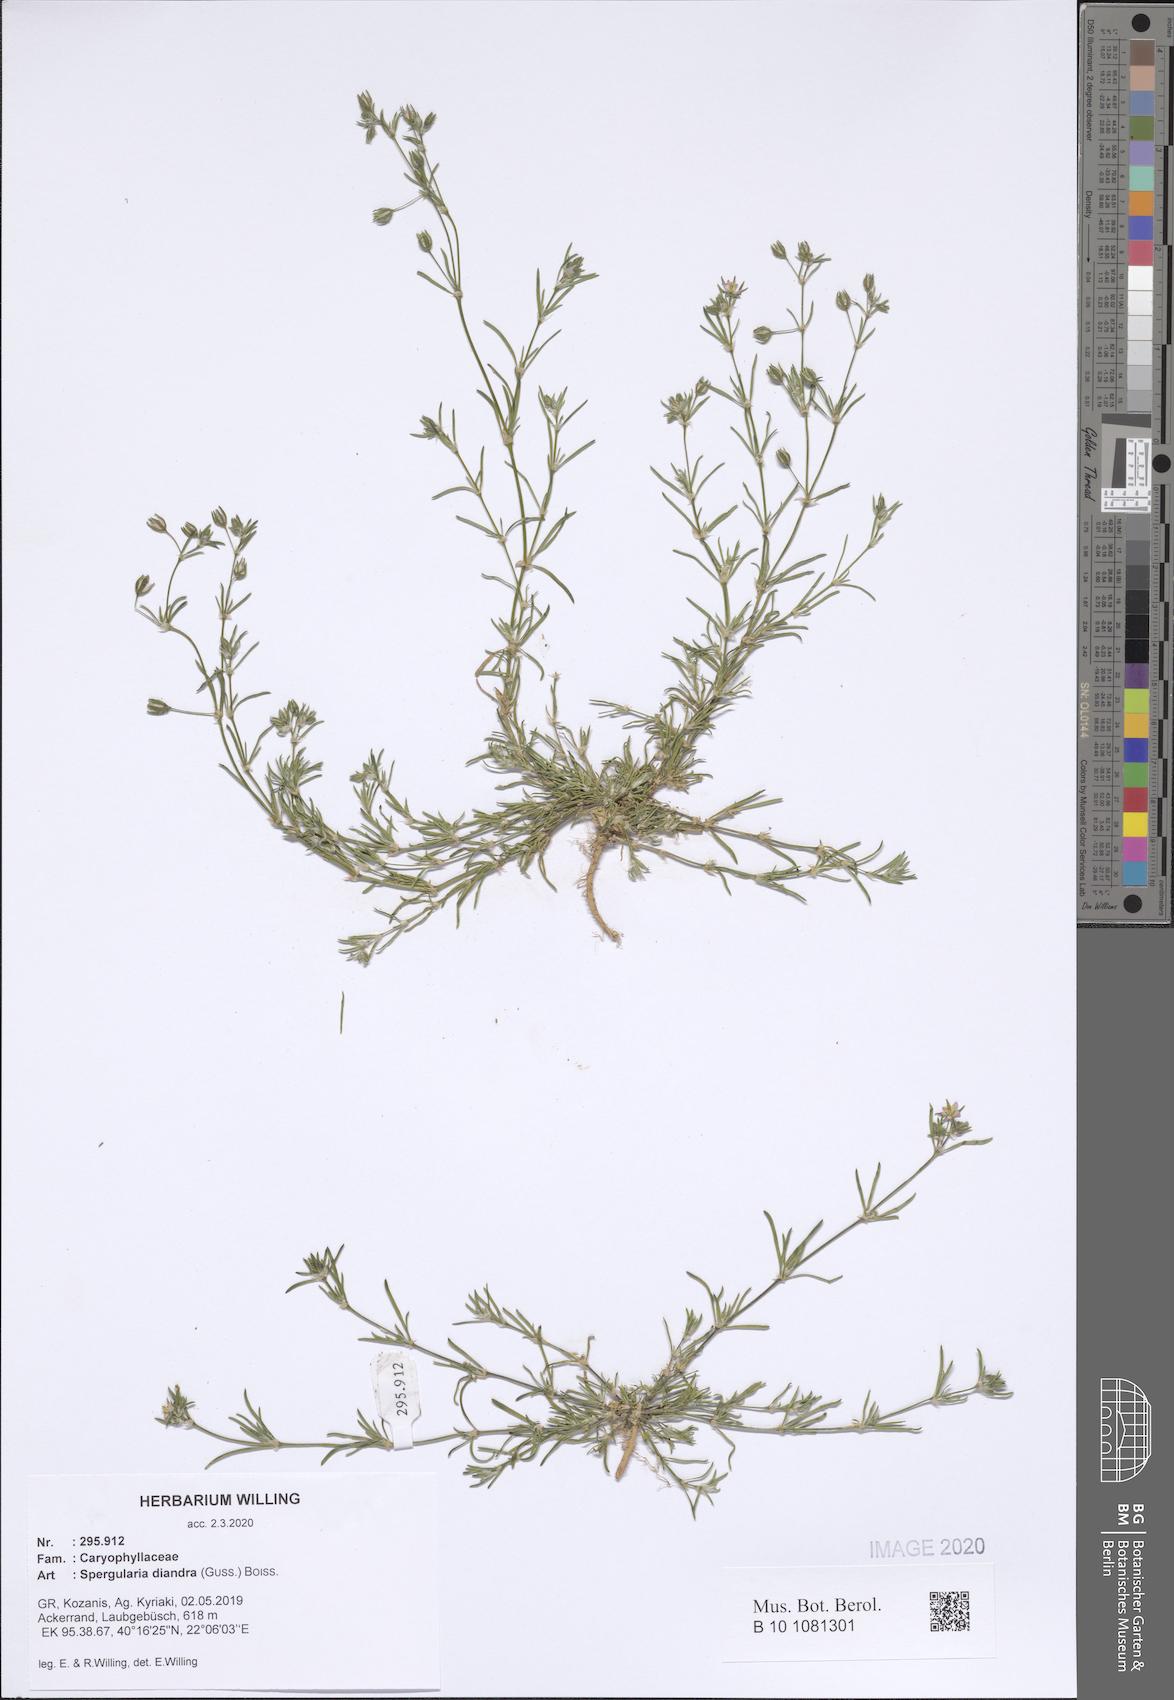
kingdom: Plantae
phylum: Tracheophyta
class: Magnoliopsida
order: Caryophyllales
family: Caryophyllaceae
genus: Spergularia
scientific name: Spergularia diandra
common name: Alkali sand-spurrey
